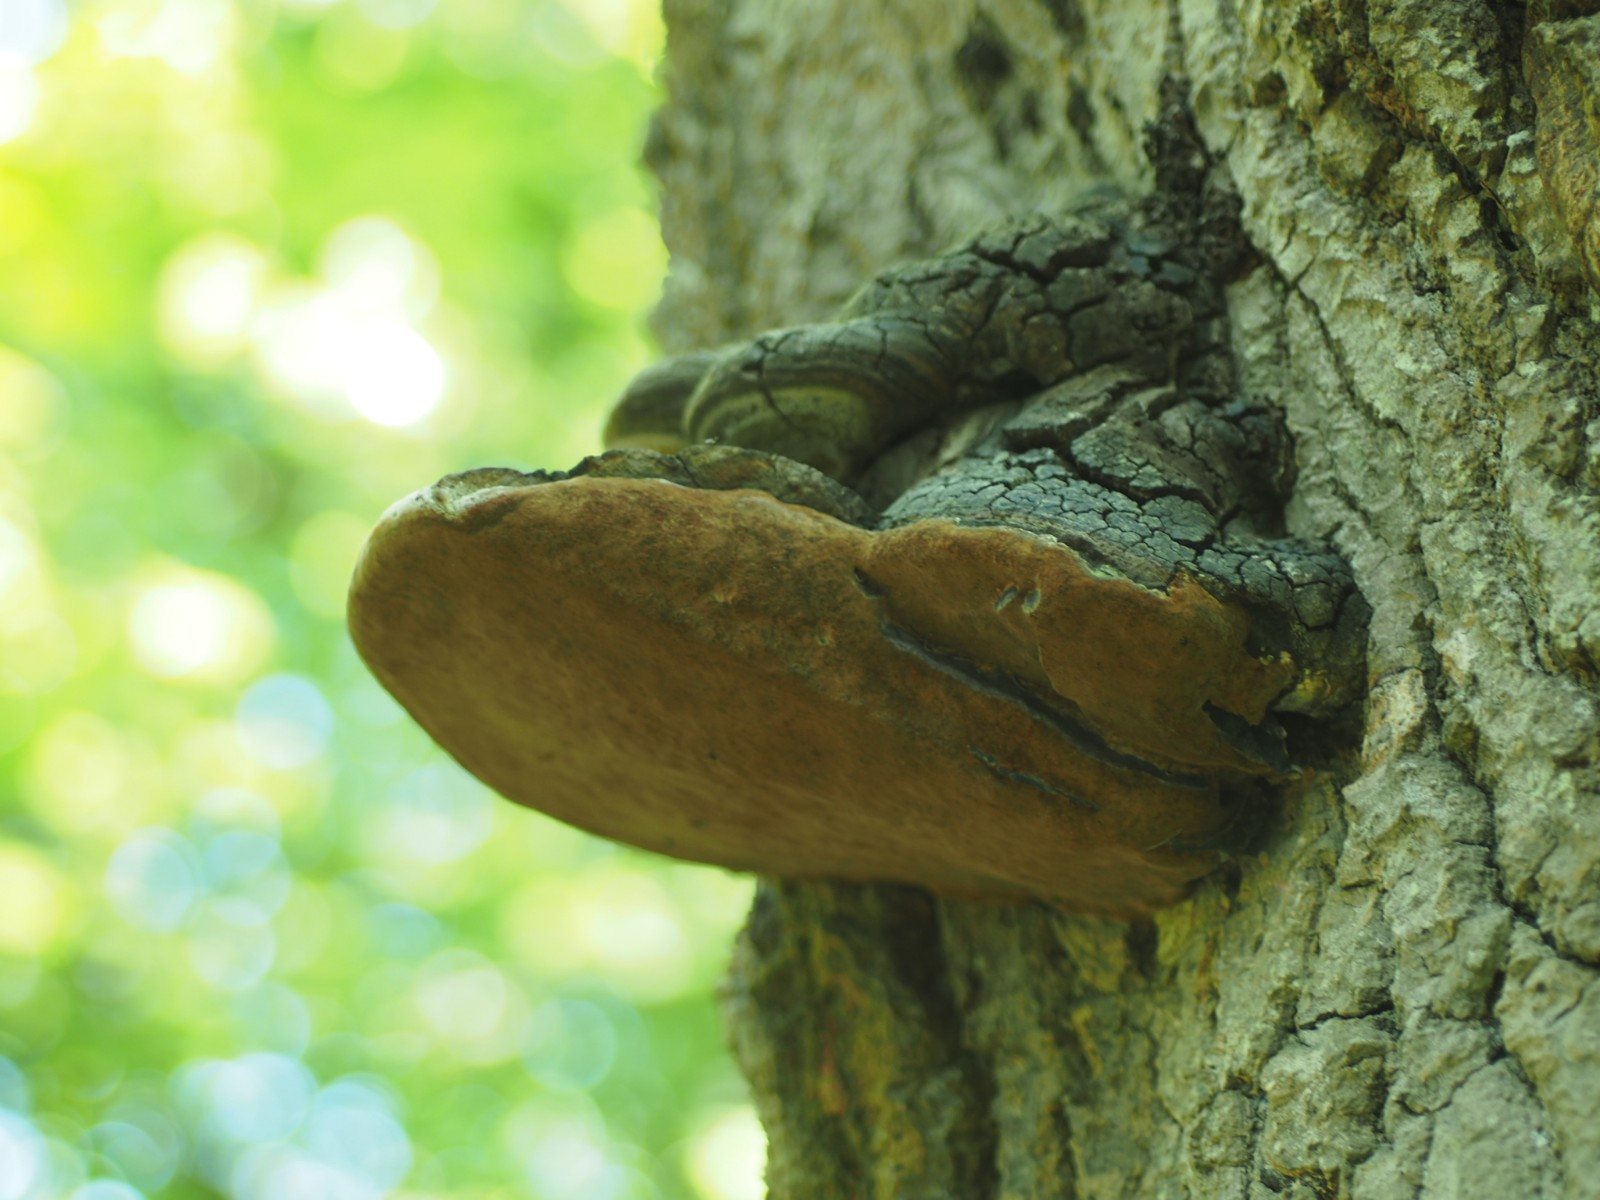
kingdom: Fungi
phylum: Basidiomycota
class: Agaricomycetes
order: Hymenochaetales
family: Hymenochaetaceae
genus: Phellinus
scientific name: Phellinus populicola
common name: poppel-ildporesvamp
